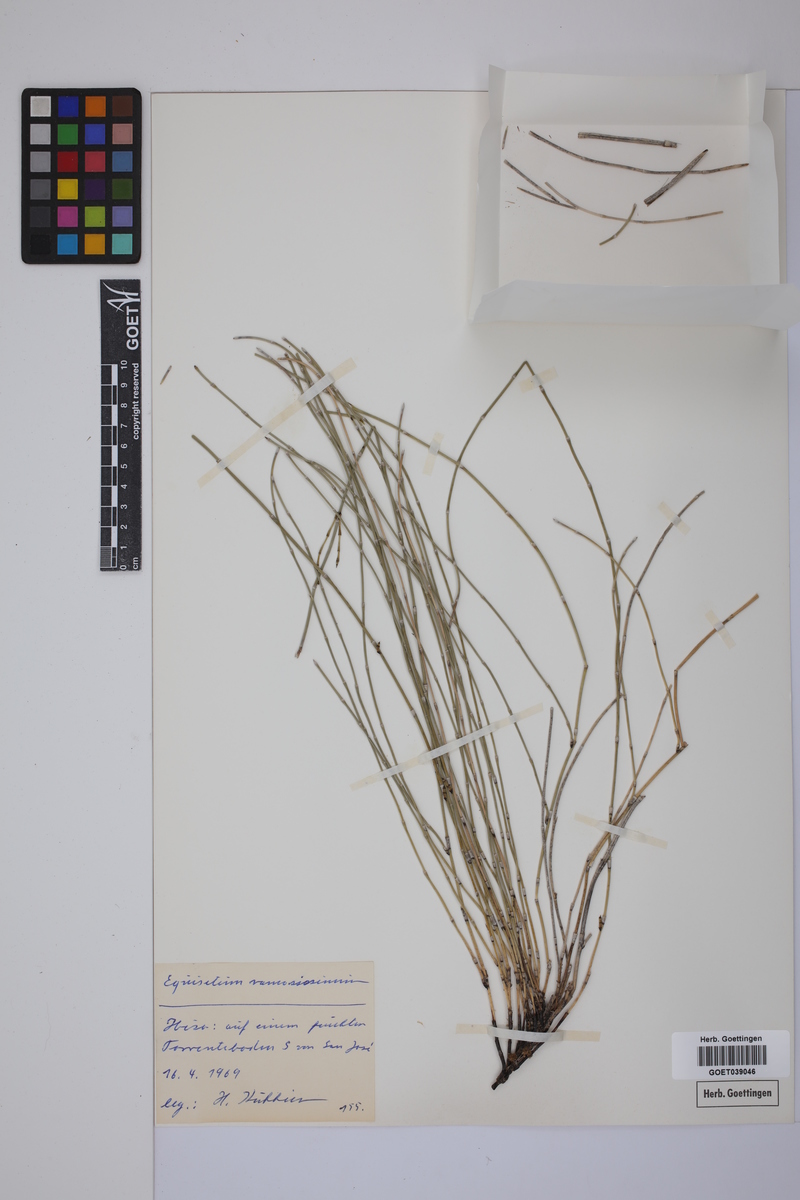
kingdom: Plantae
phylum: Tracheophyta
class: Polypodiopsida
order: Equisetales
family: Equisetaceae
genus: Equisetum
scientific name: Equisetum giganteum
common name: Giant horsetail
